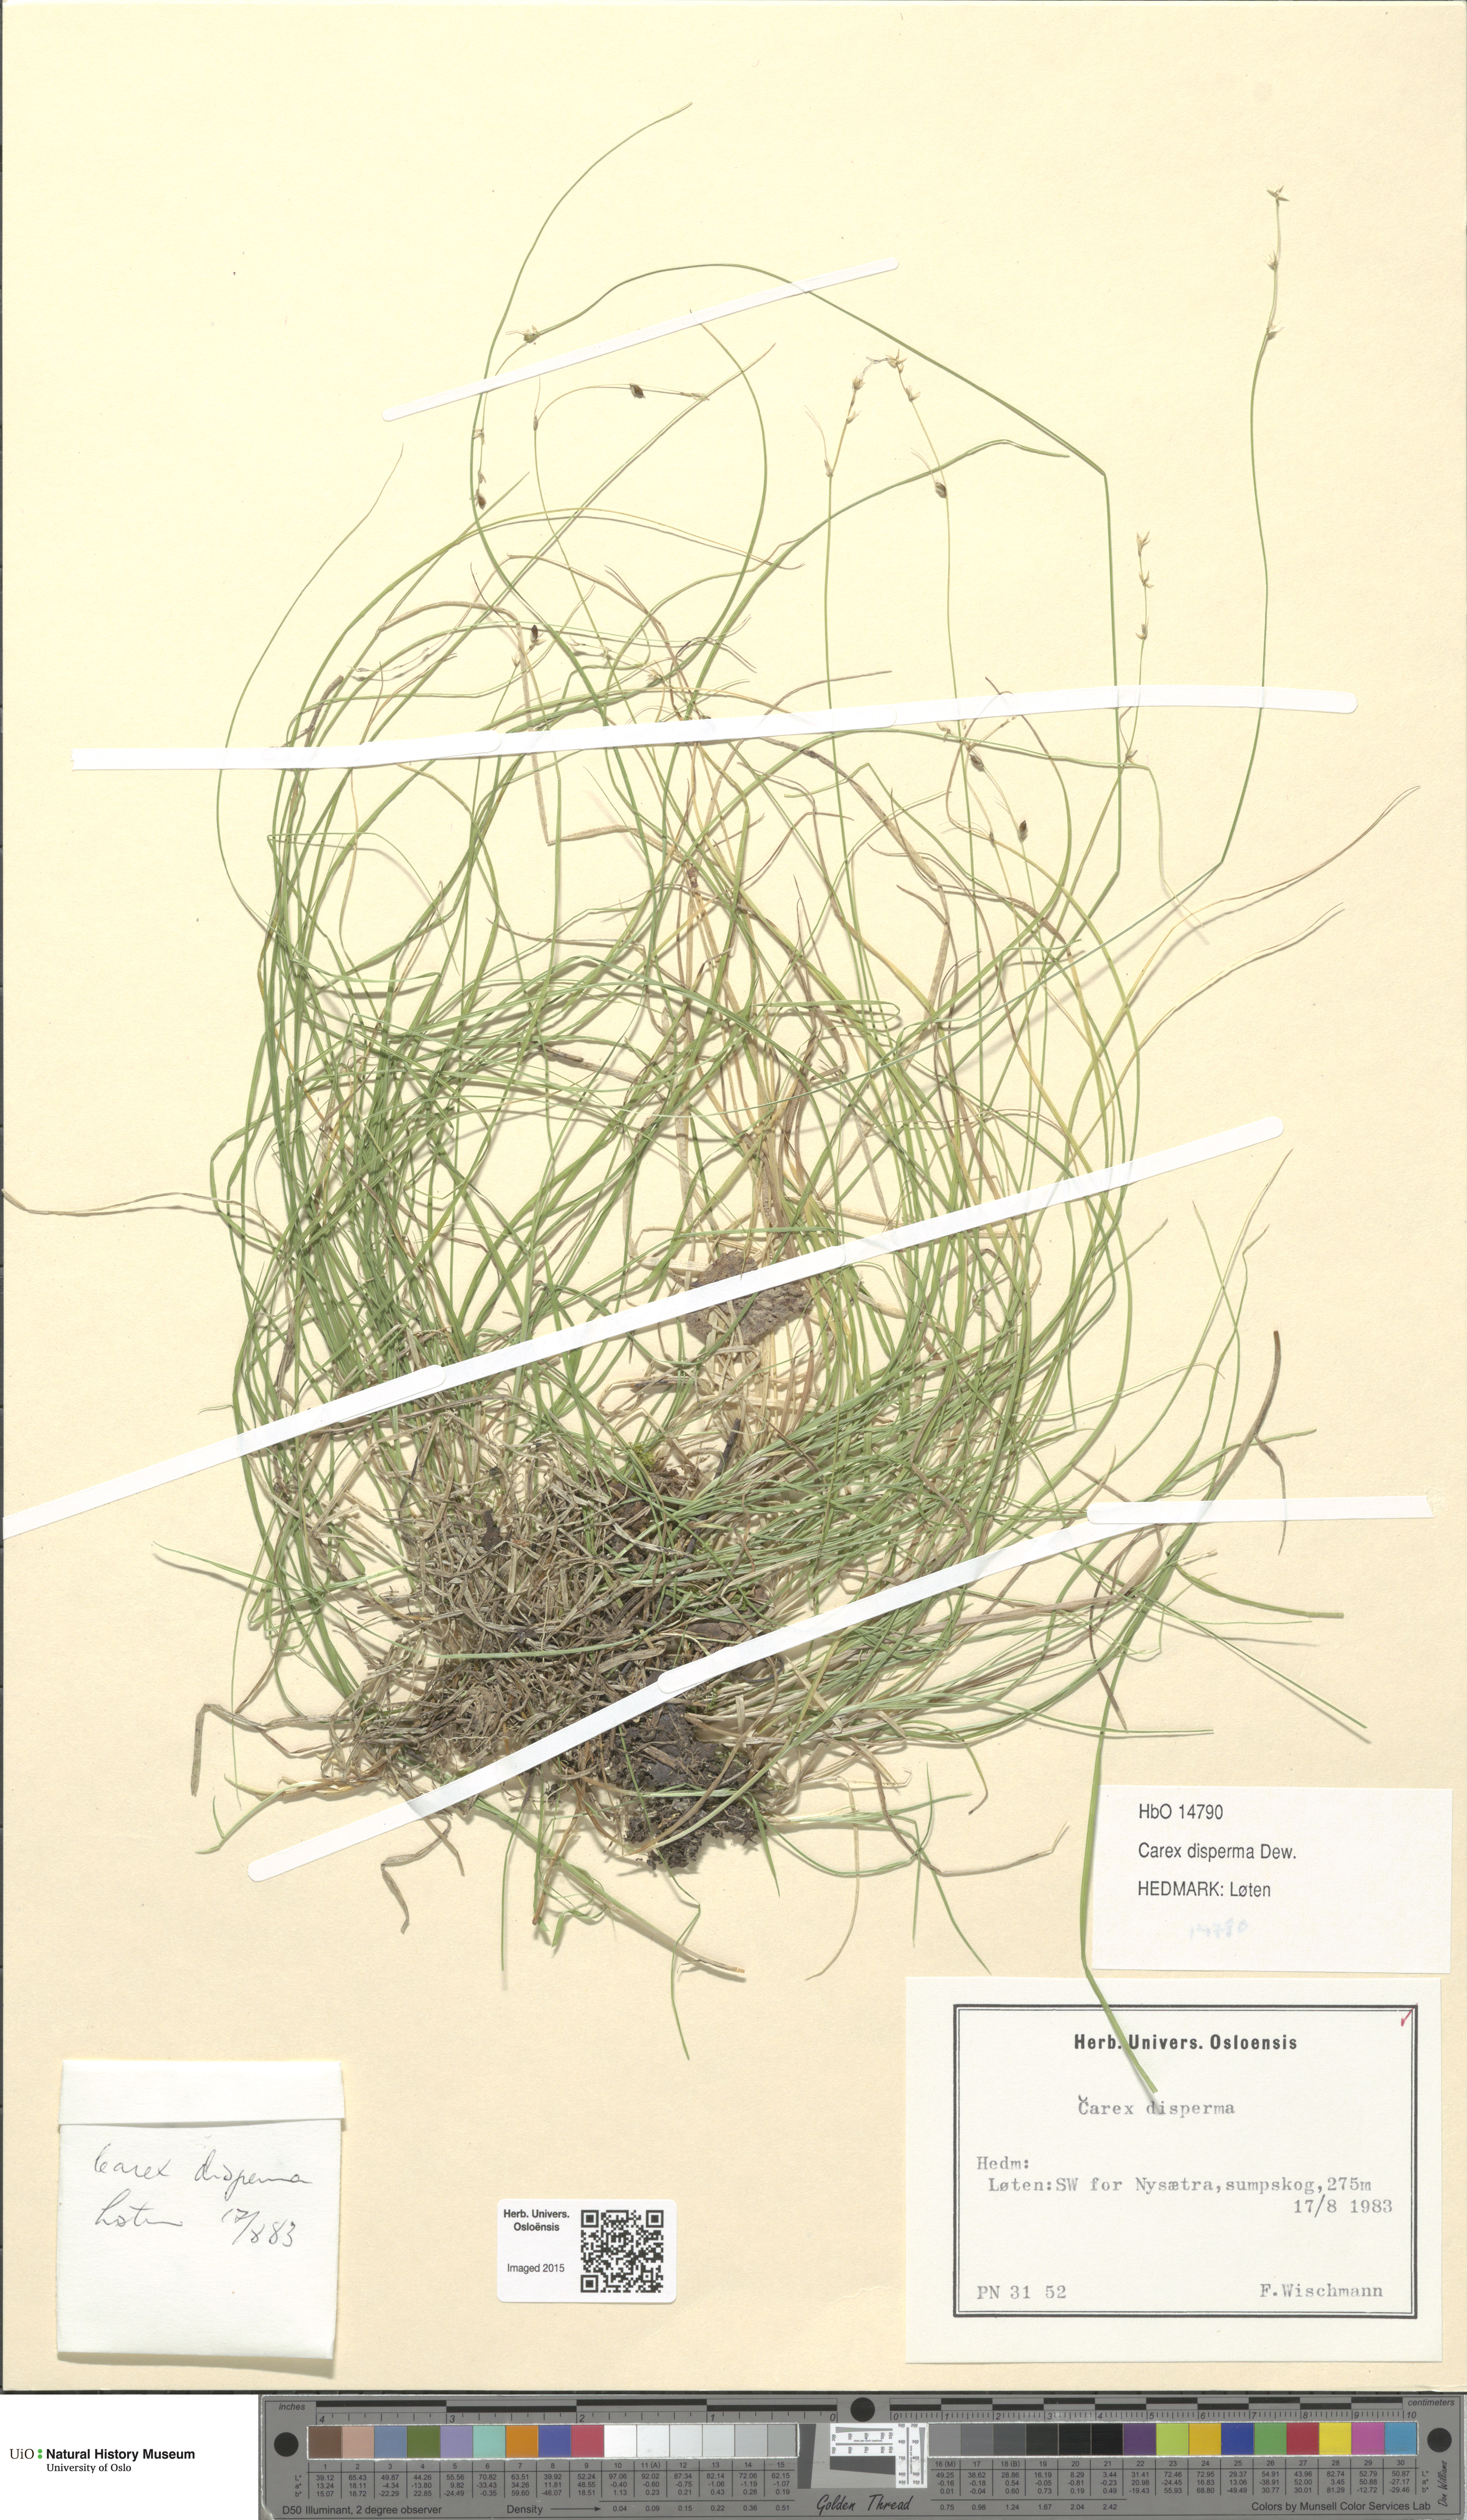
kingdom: Plantae
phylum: Tracheophyta
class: Liliopsida
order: Poales
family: Cyperaceae
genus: Carex
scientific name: Carex disperma
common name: Short-leaved sedge
